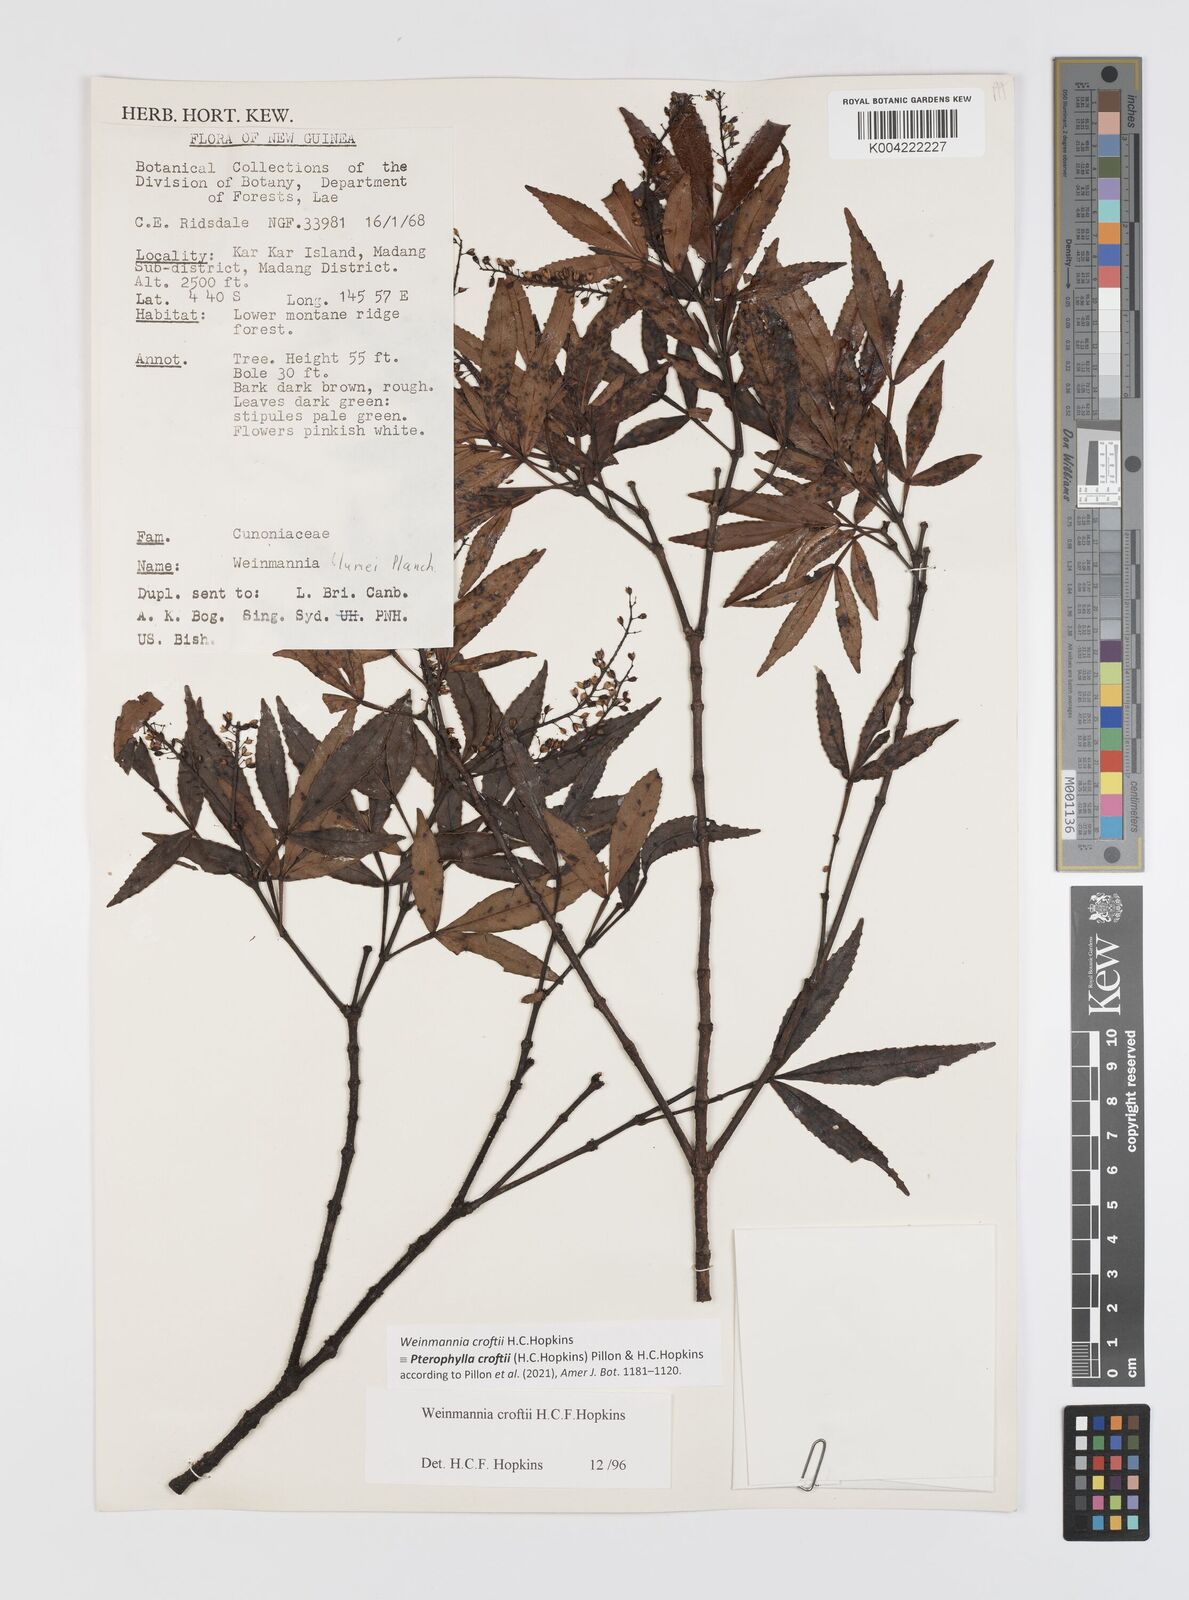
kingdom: Plantae
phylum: Tracheophyta
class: Magnoliopsida
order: Oxalidales
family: Cunoniaceae
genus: Pterophylla
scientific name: Pterophylla croftii
